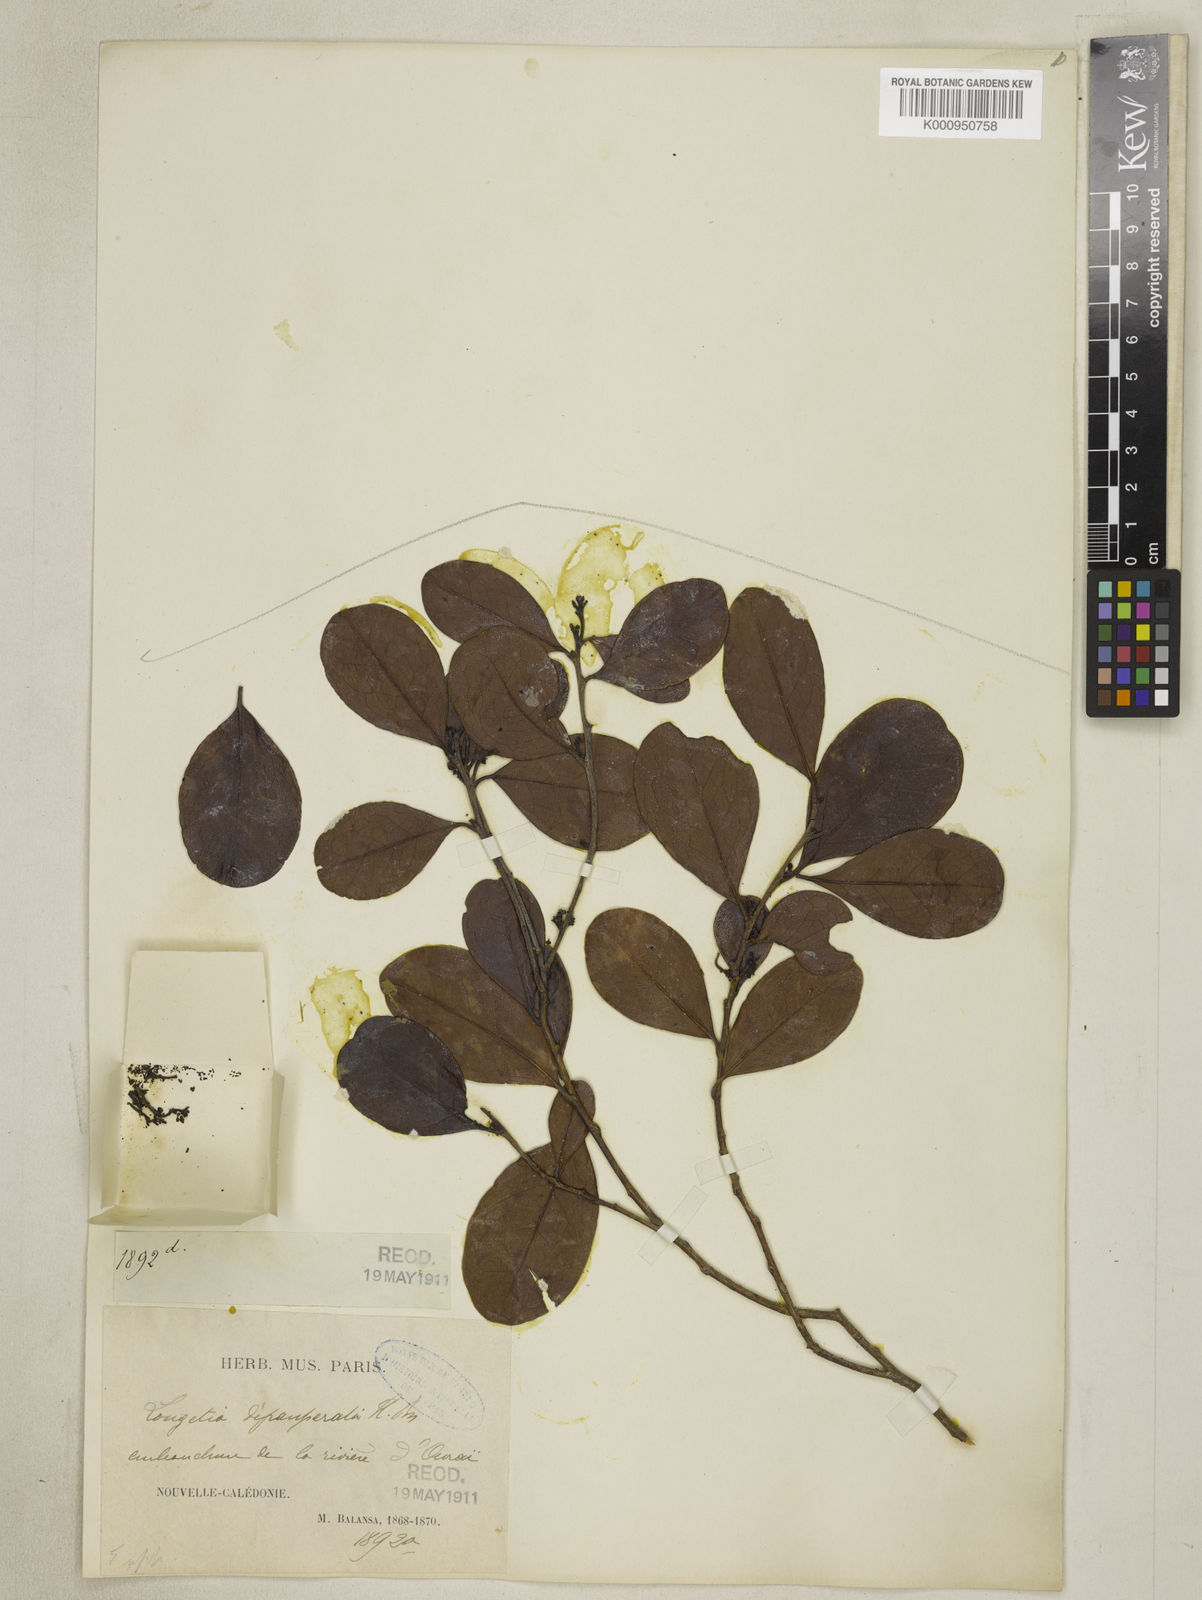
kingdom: Plantae
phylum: Tracheophyta
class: Magnoliopsida
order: Malpighiales
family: Picrodendraceae
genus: Scagea
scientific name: Scagea depauperata
